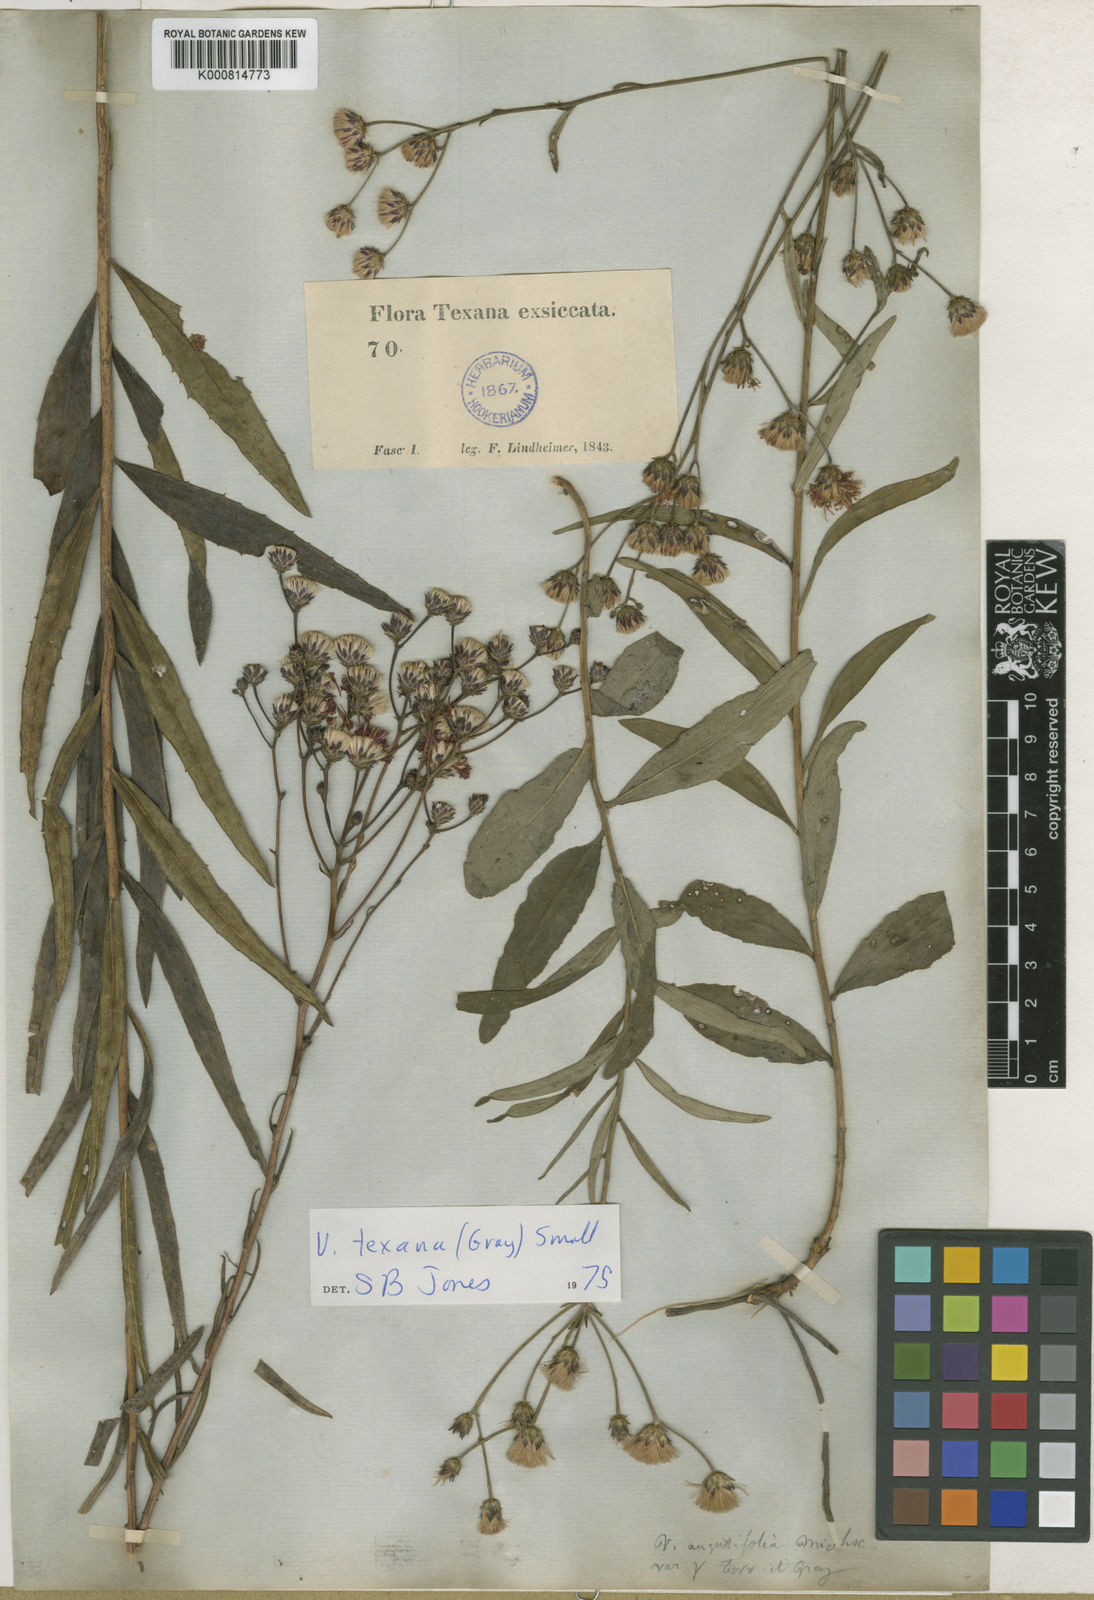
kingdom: Plantae
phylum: Tracheophyta
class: Magnoliopsida
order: Asterales
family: Asteraceae
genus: Vernonia
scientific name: Vernonia texana
